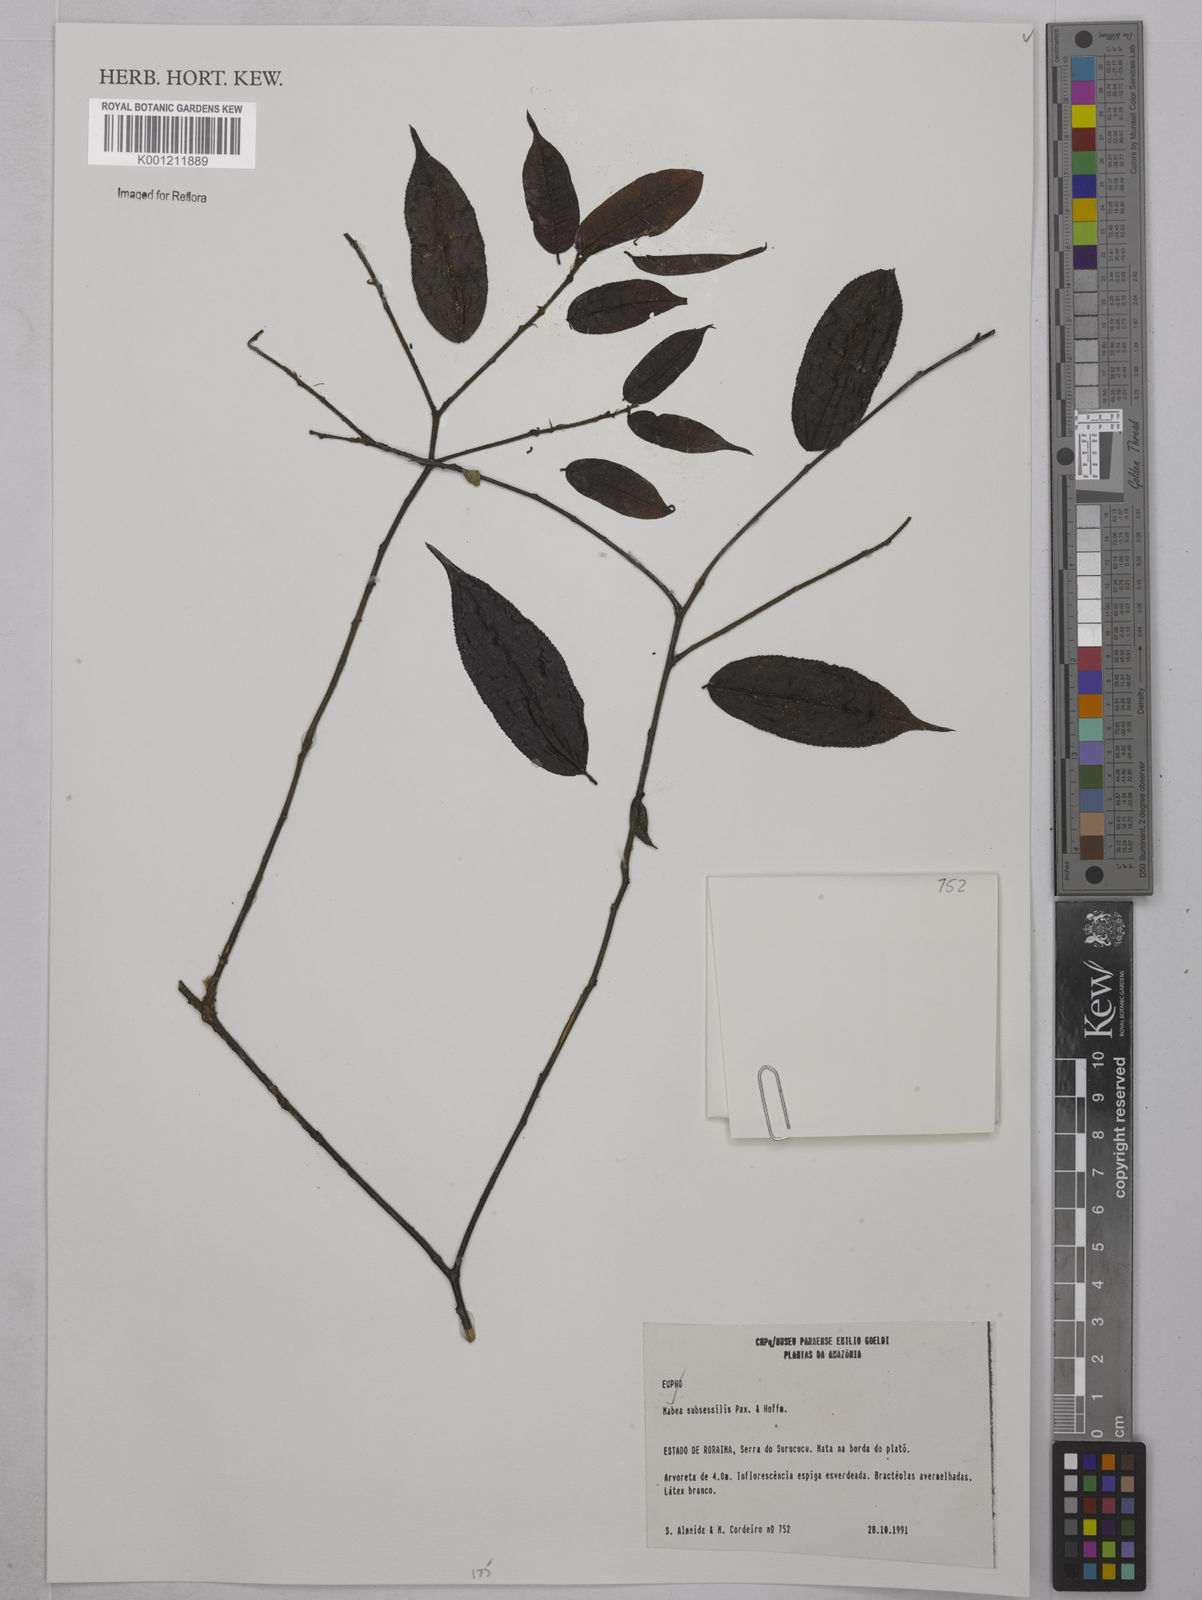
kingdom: Plantae
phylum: Tracheophyta
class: Magnoliopsida
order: Malpighiales
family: Euphorbiaceae
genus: Mabea
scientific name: Mabea subsessilis
